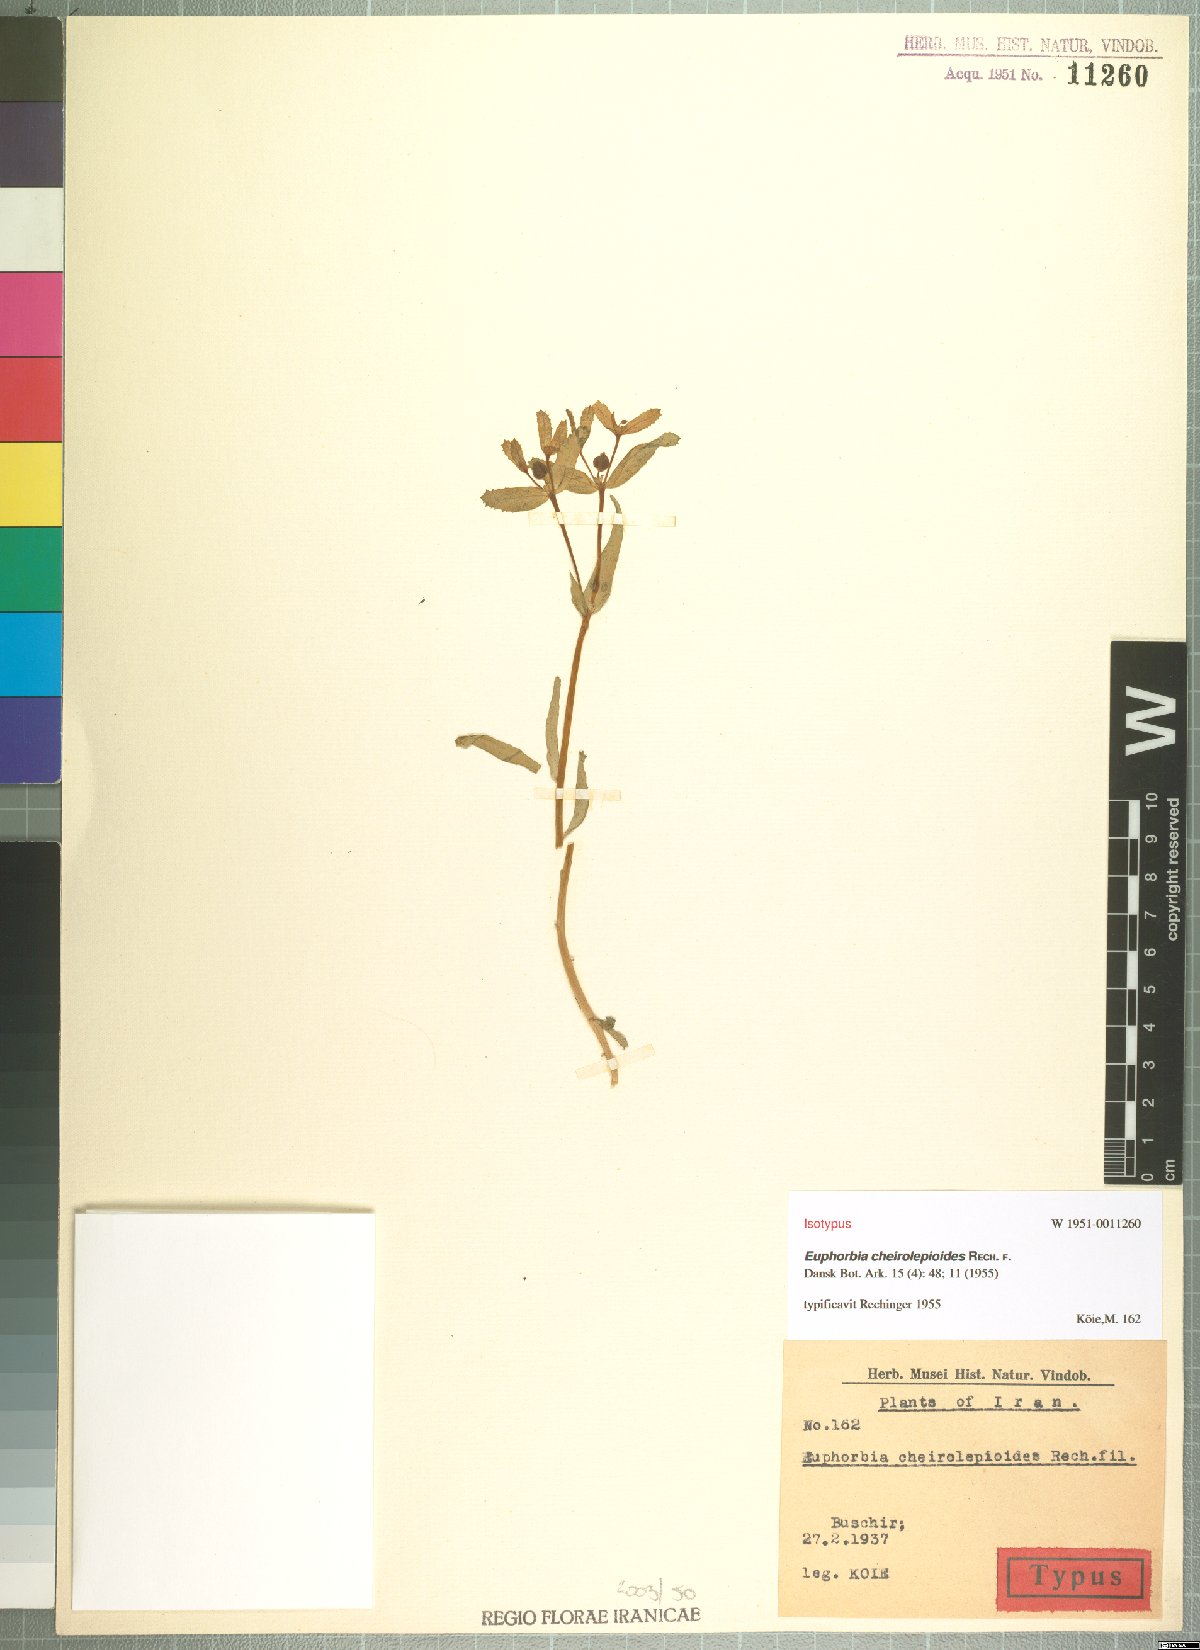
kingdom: Plantae
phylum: Tracheophyta
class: Magnoliopsida
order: Malpighiales
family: Euphorbiaceae
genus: Euphorbia
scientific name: Euphorbia grossheimii
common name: Grossheim's spurge
